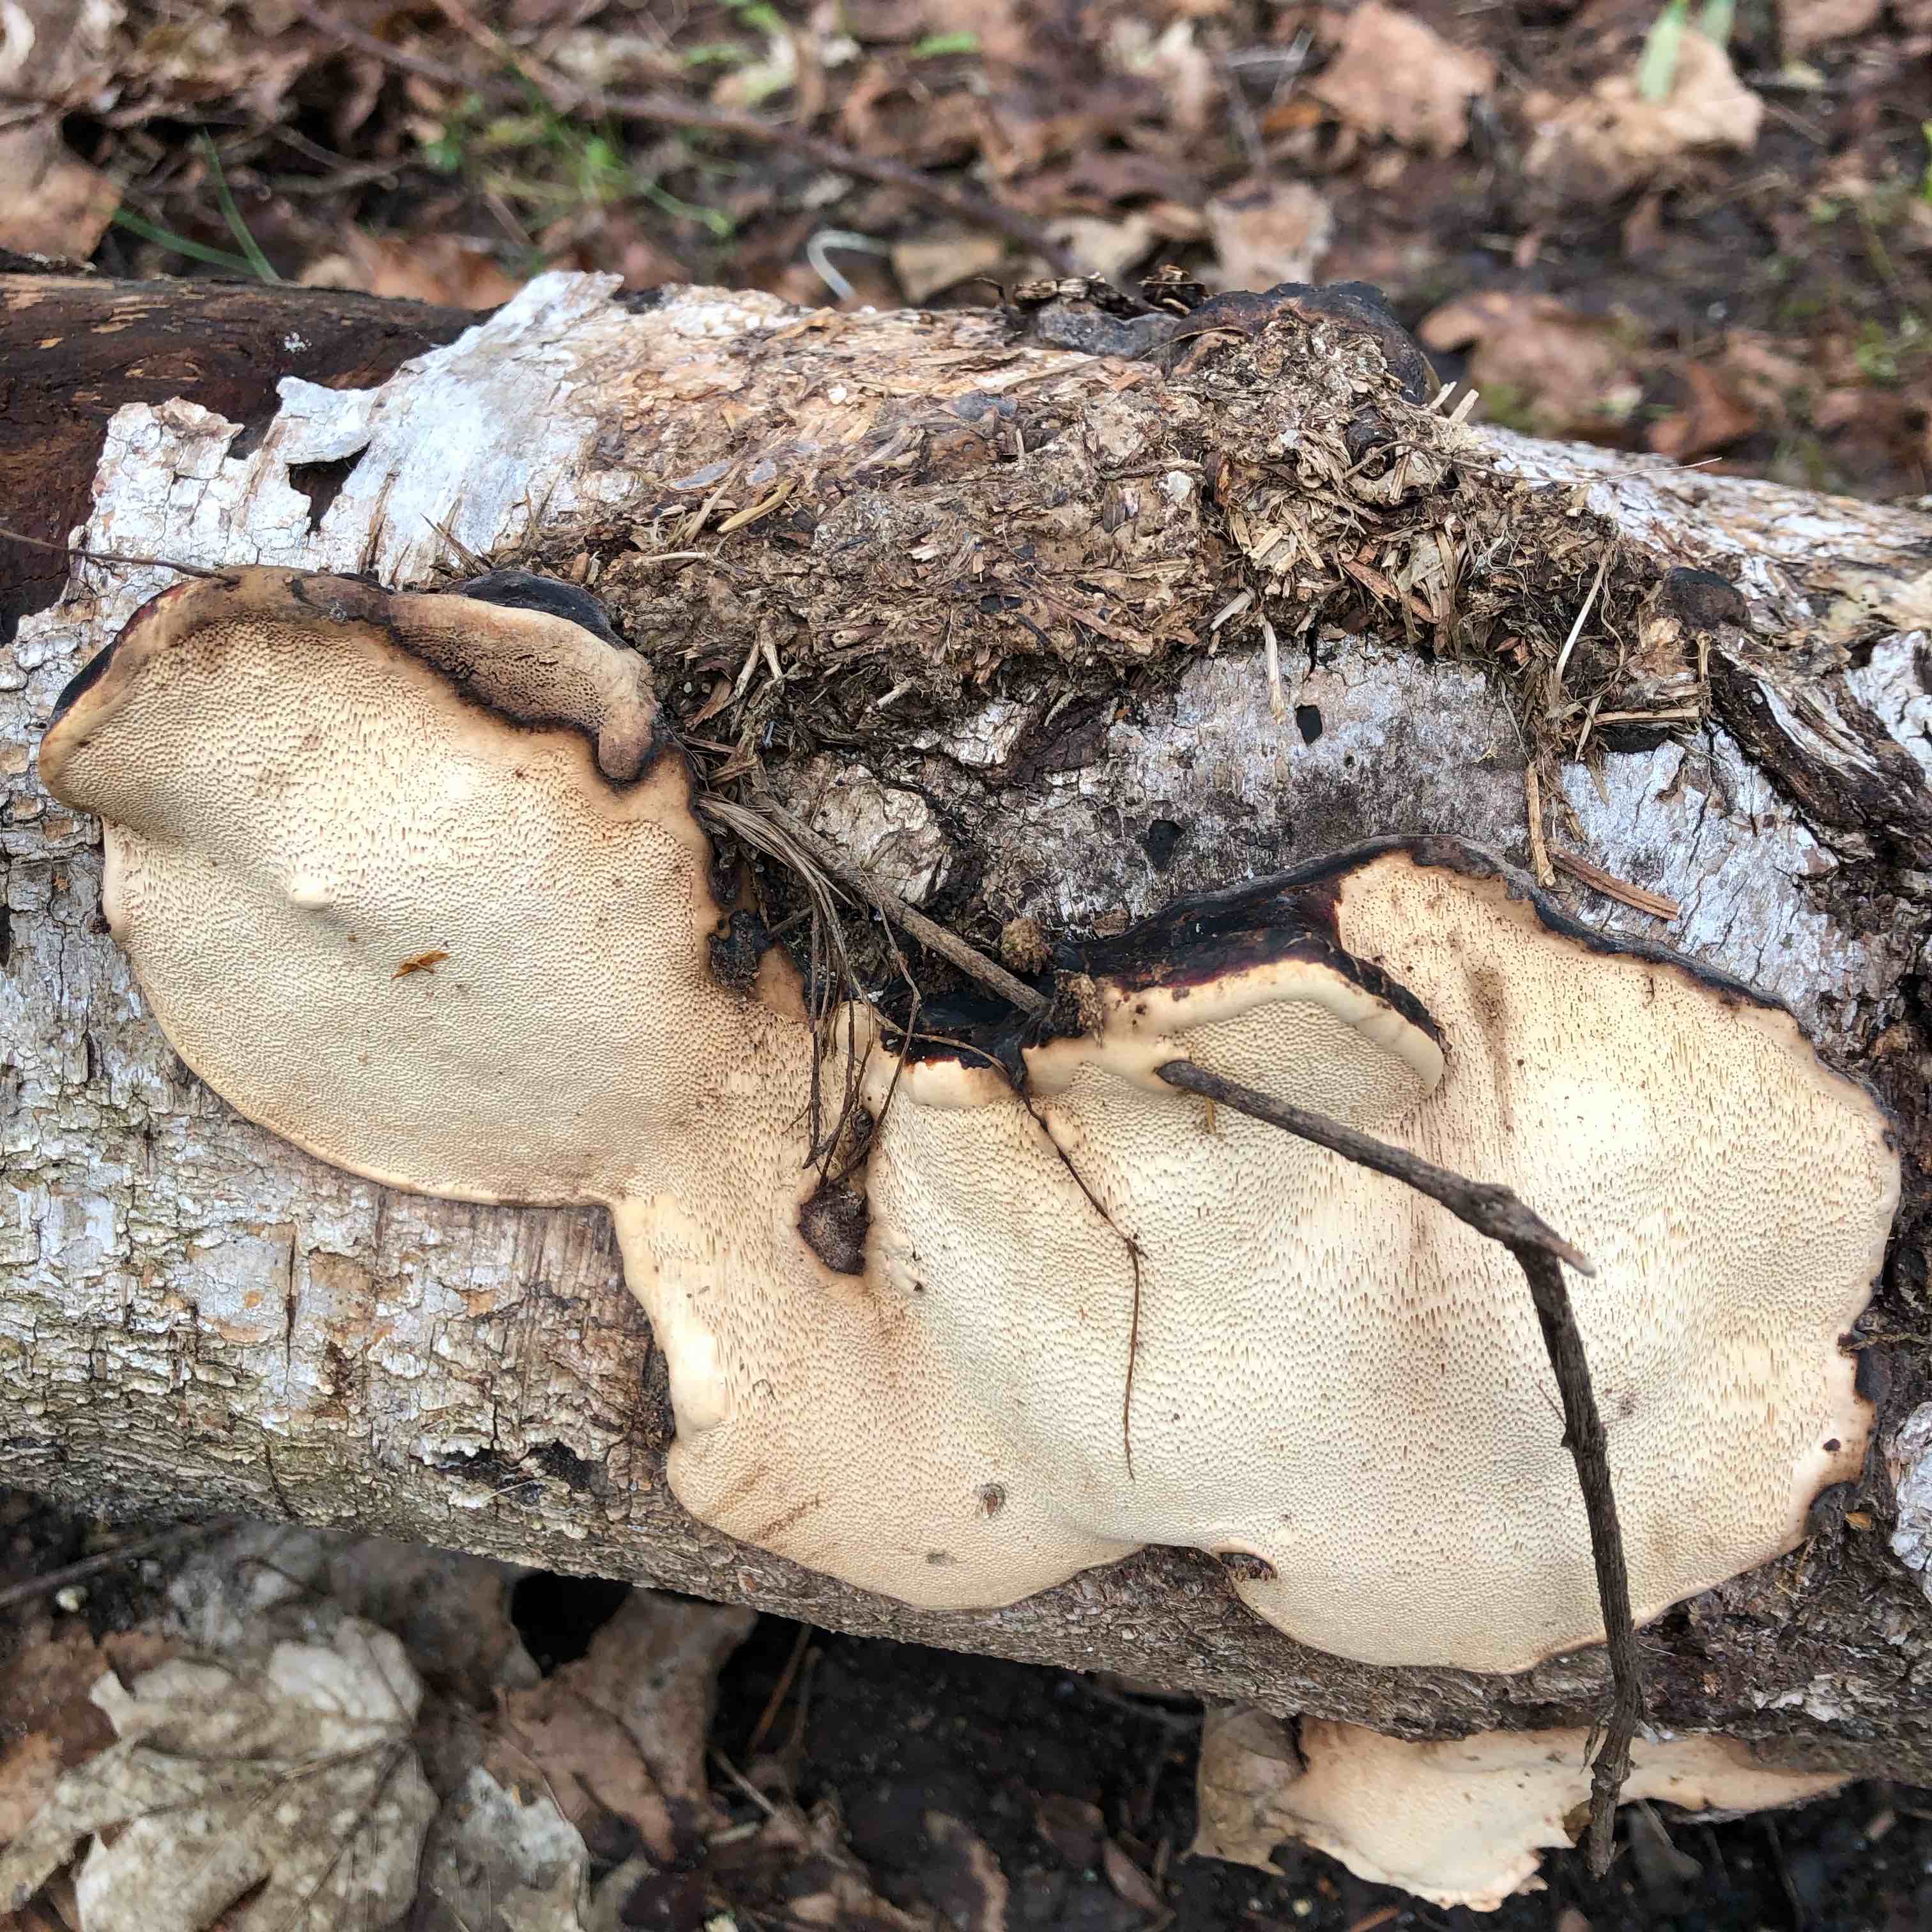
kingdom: Fungi
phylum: Basidiomycota
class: Agaricomycetes
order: Polyporales
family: Fomitopsidaceae
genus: Fomitopsis
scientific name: Fomitopsis pinicola
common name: randbæltet hovporesvamp
